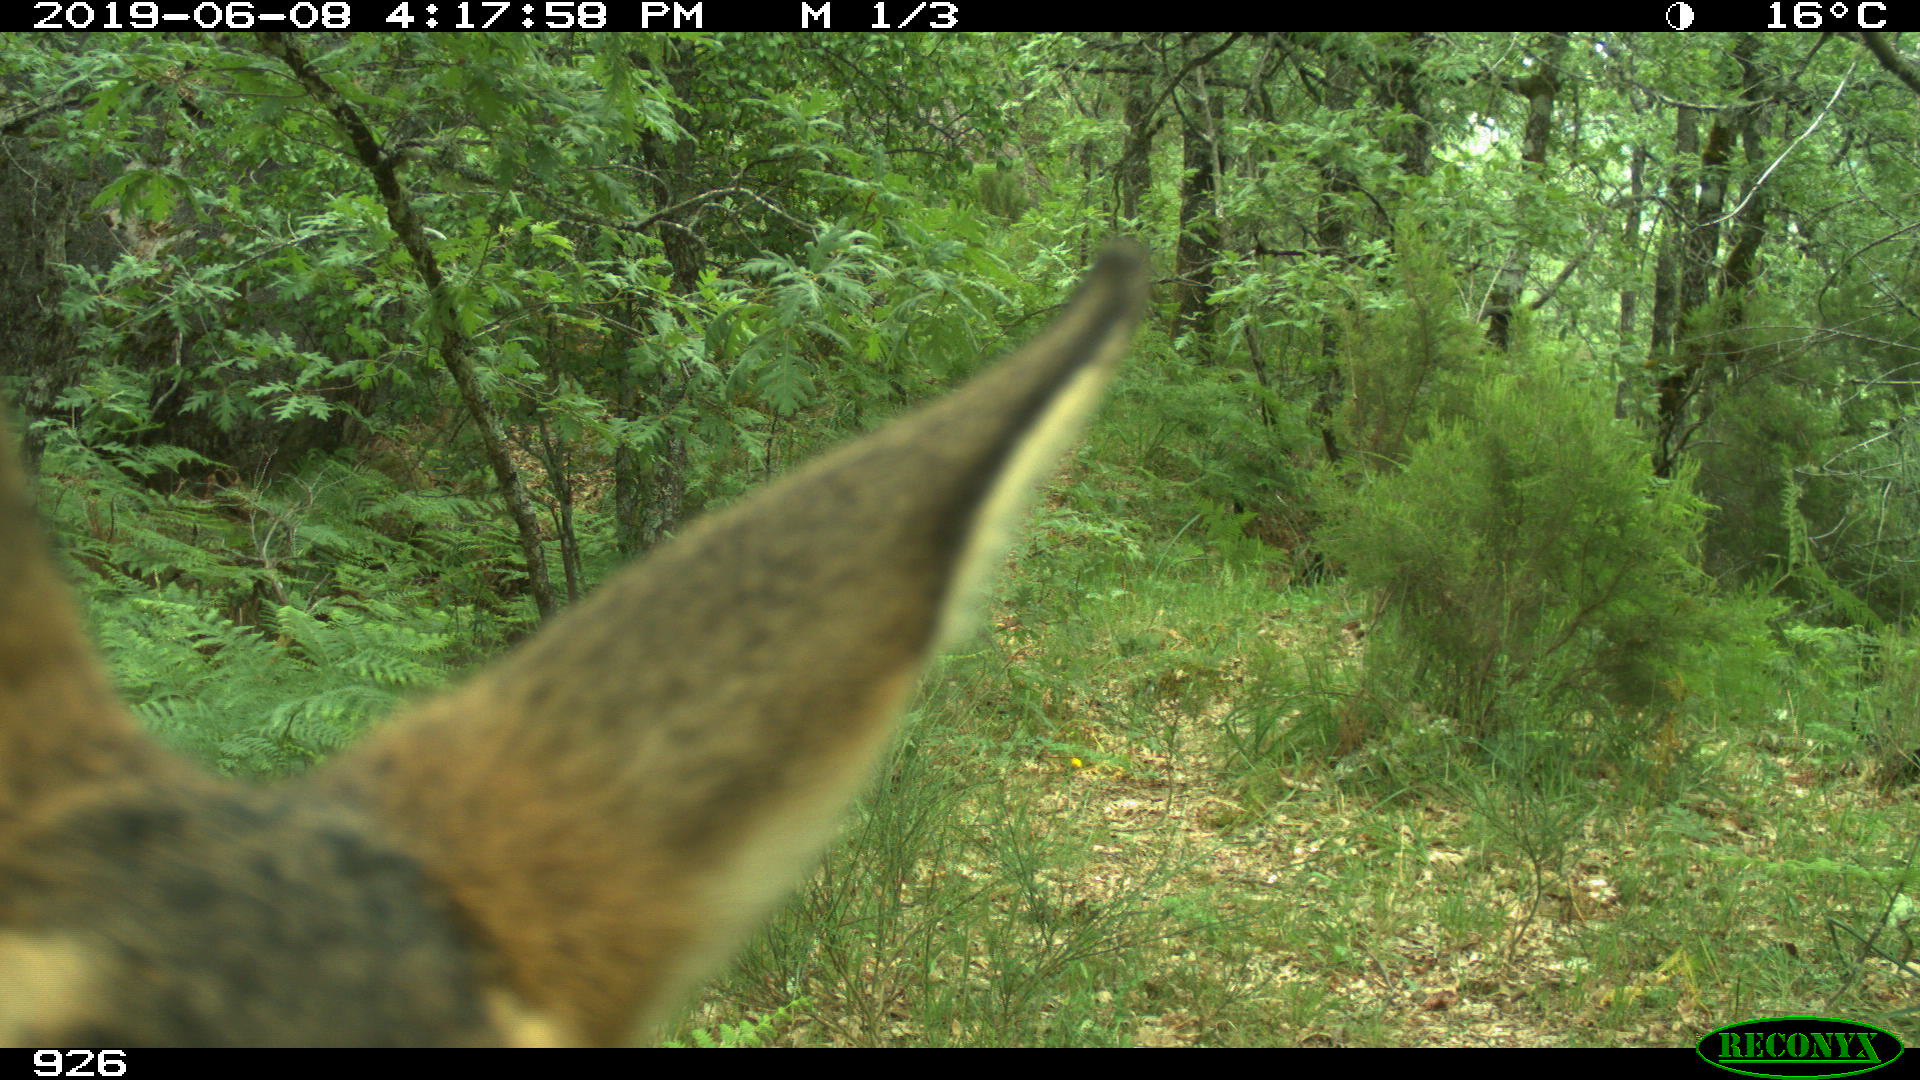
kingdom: Animalia
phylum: Chordata
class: Mammalia
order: Artiodactyla
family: Cervidae
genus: Capreolus
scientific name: Capreolus capreolus
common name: Western roe deer
